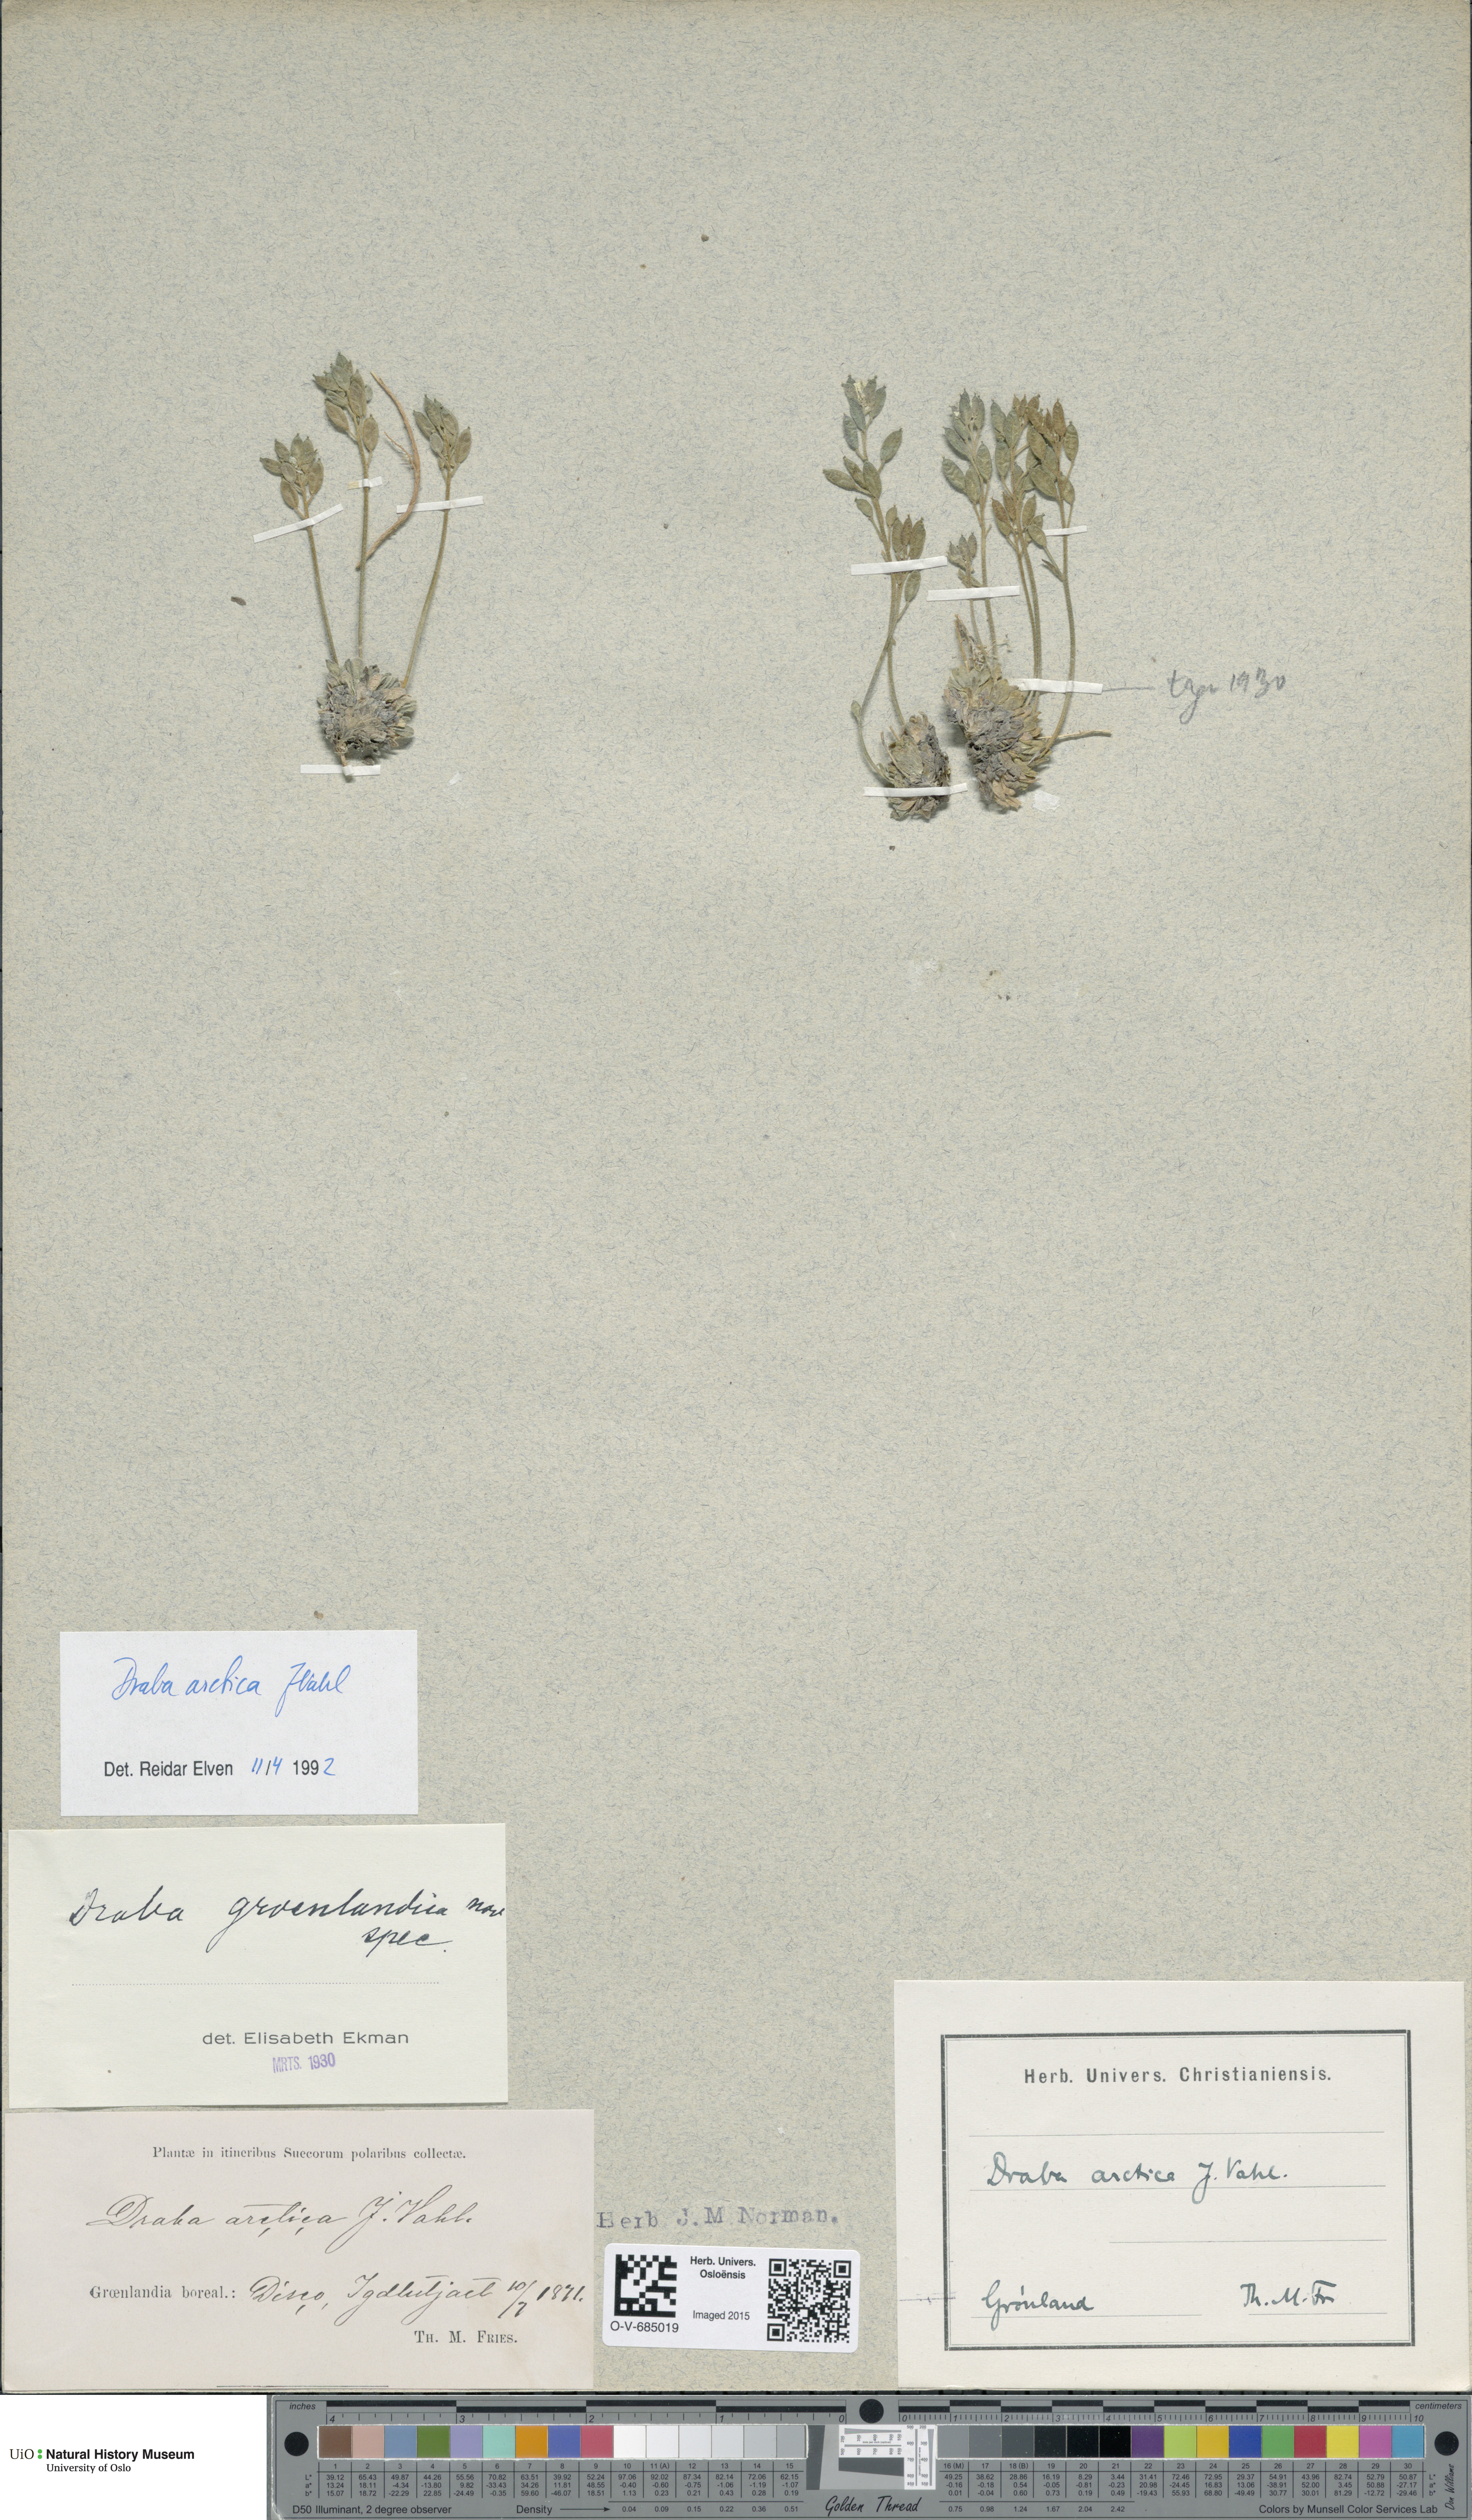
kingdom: Plantae
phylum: Tracheophyta
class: Magnoliopsida
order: Brassicales
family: Brassicaceae
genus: Draba
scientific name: Draba arctica
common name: Arctic draba
